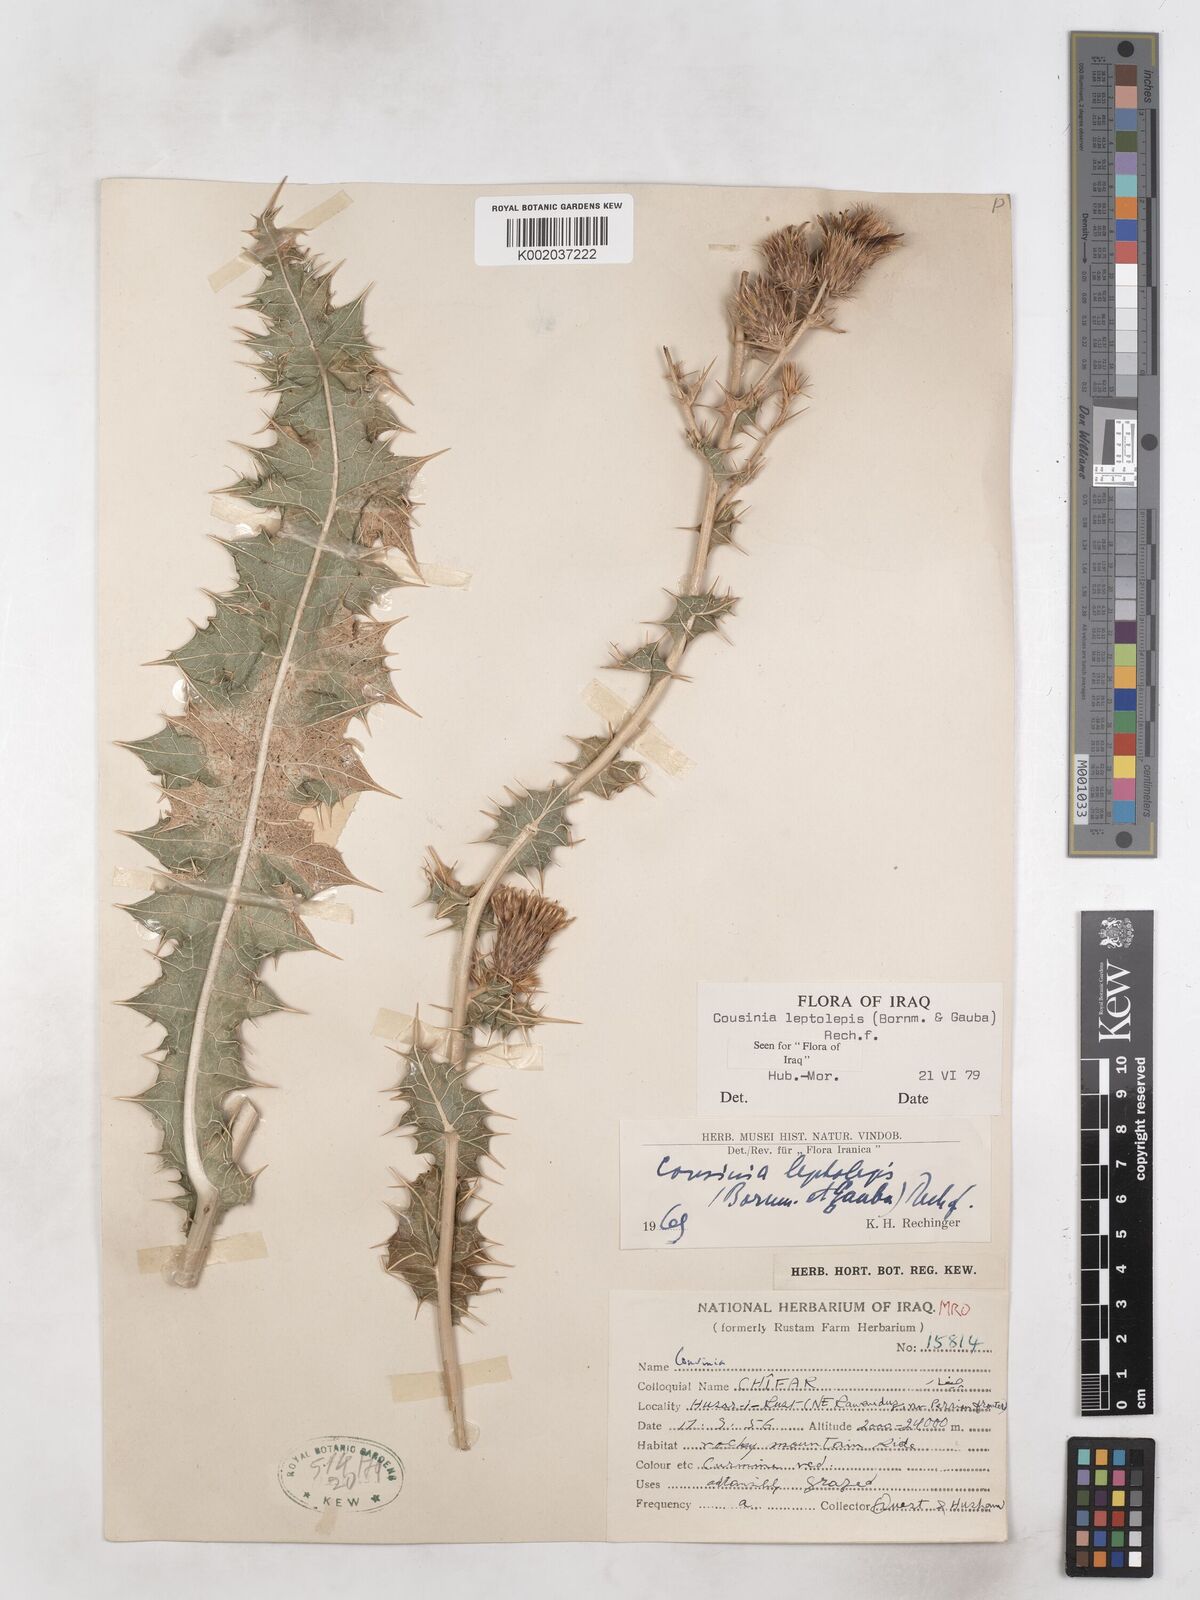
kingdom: Plantae
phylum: Tracheophyta
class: Magnoliopsida
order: Asterales
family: Asteraceae
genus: Cousinia
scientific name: Cousinia leptolepis
